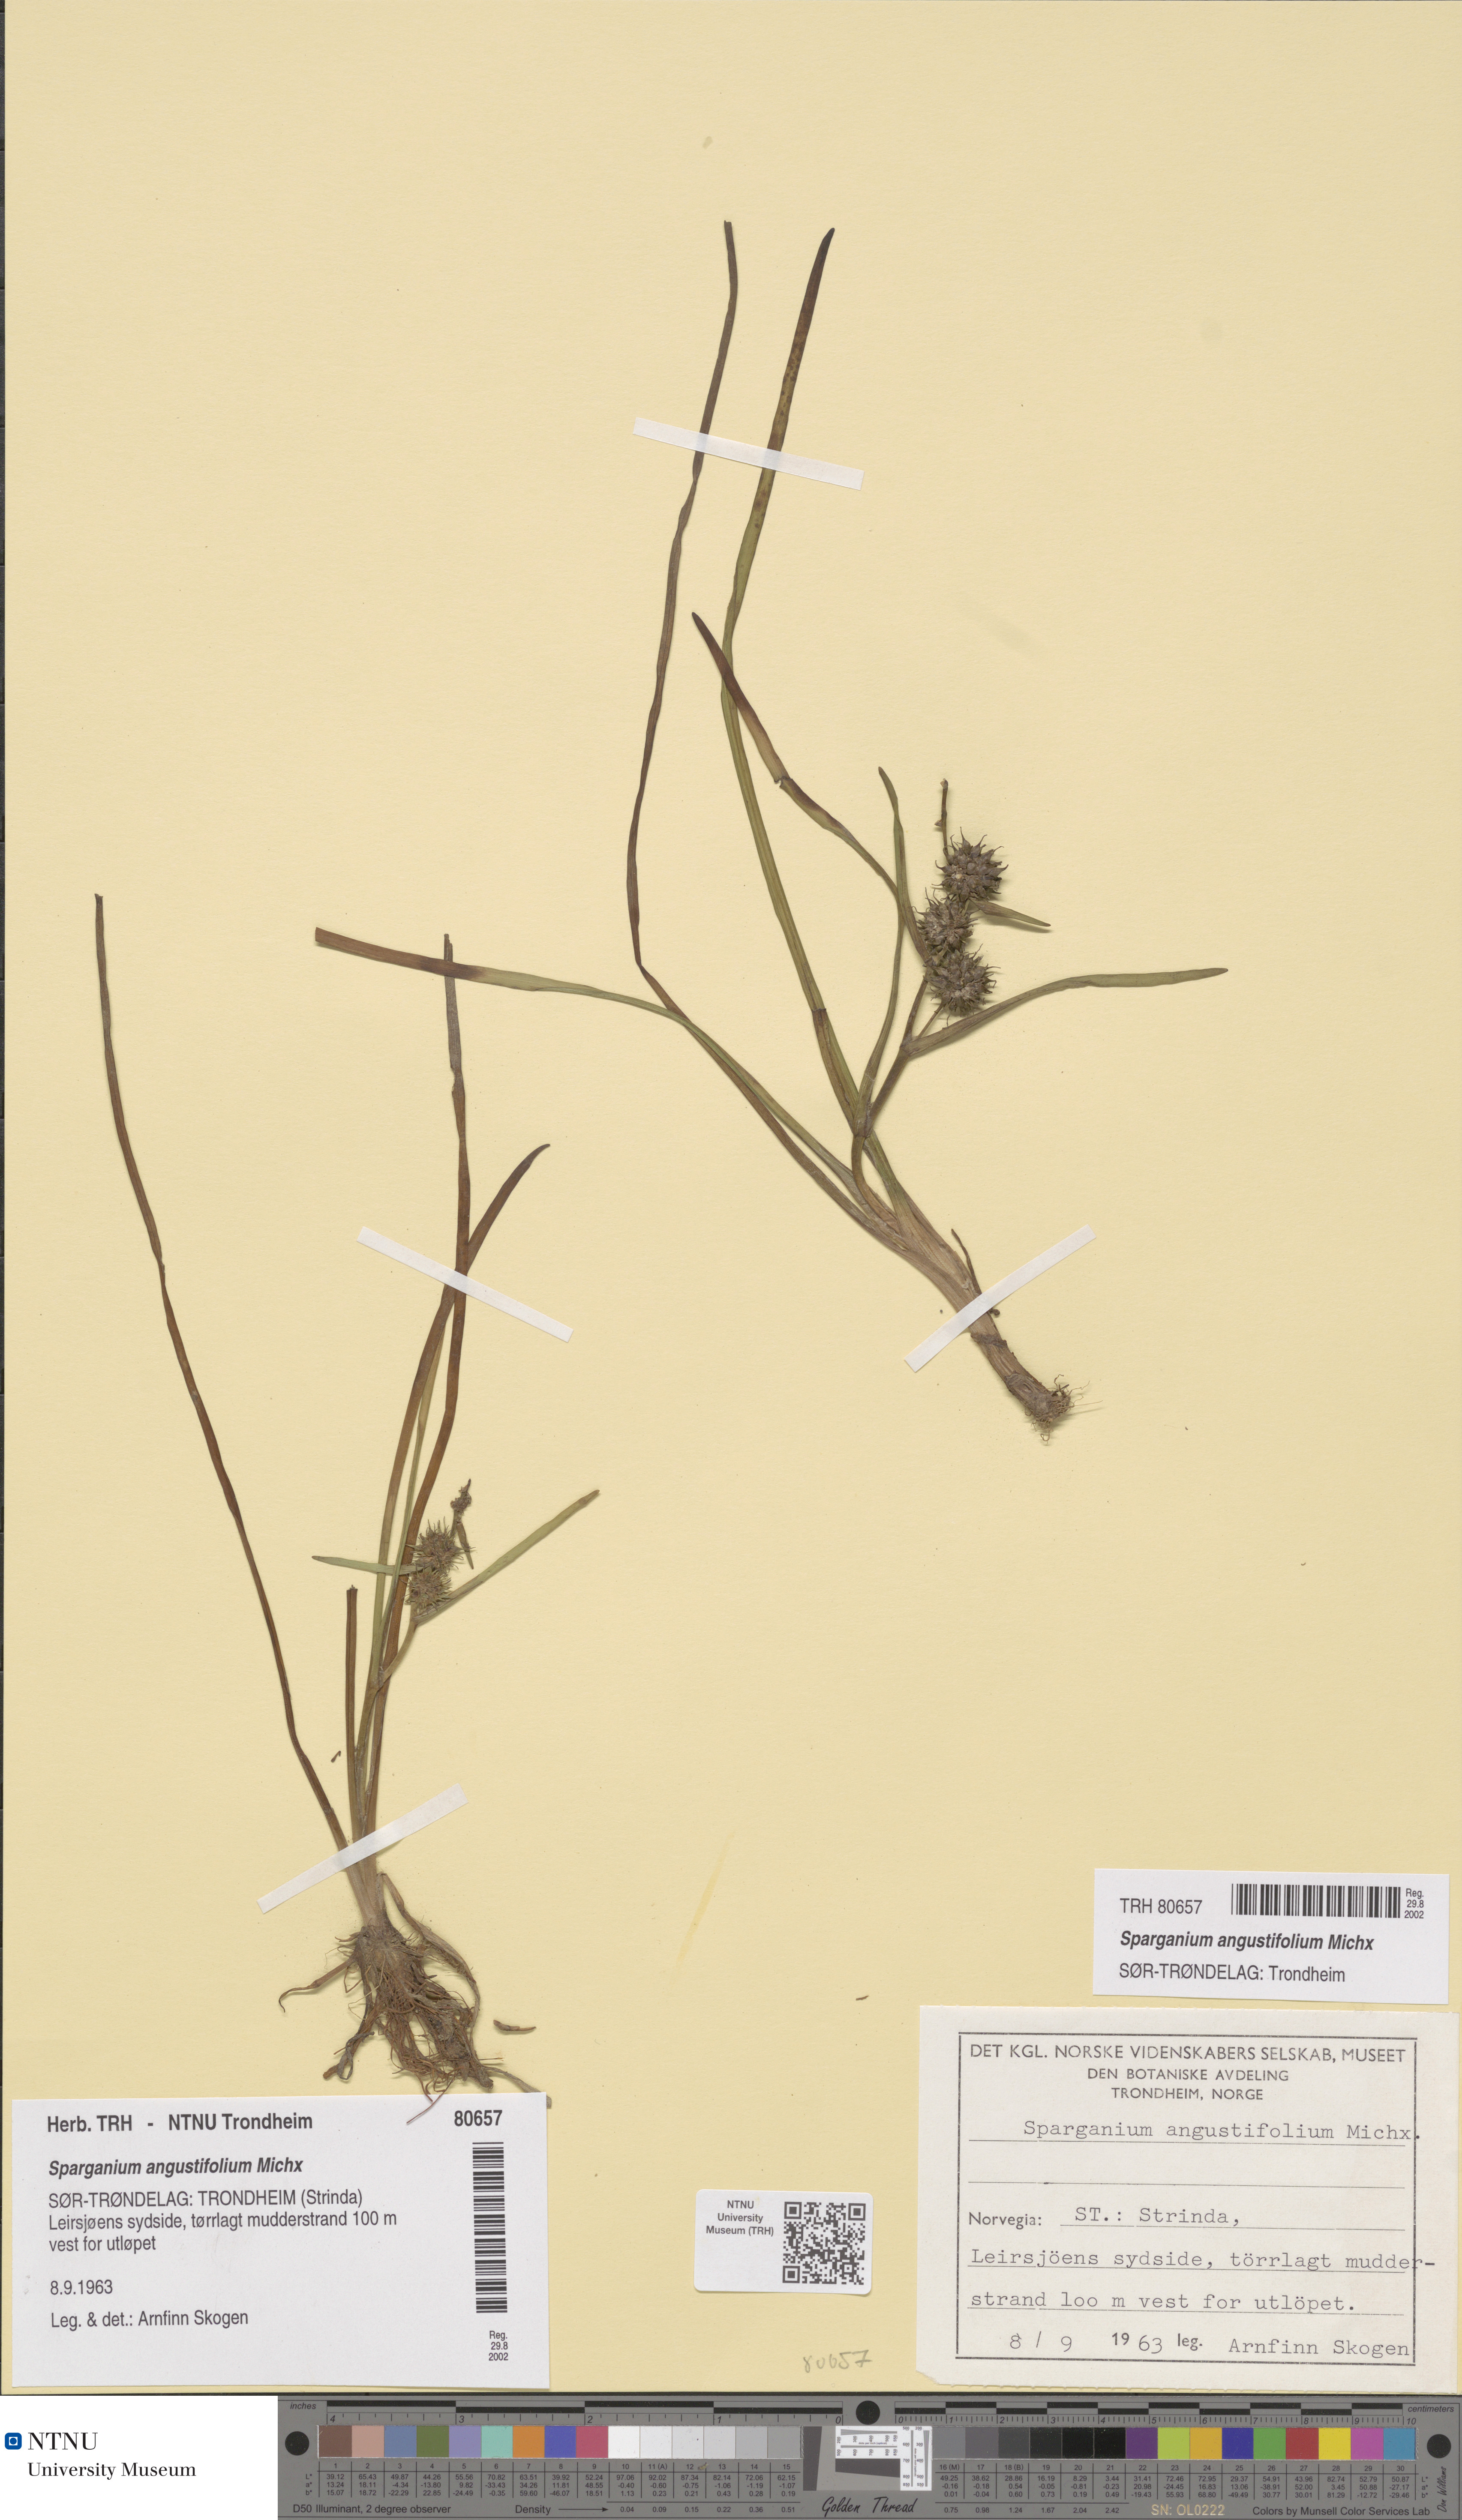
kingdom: Plantae
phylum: Tracheophyta
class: Liliopsida
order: Poales
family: Typhaceae
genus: Sparganium
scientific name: Sparganium angustifolium
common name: Floating bur-reed
